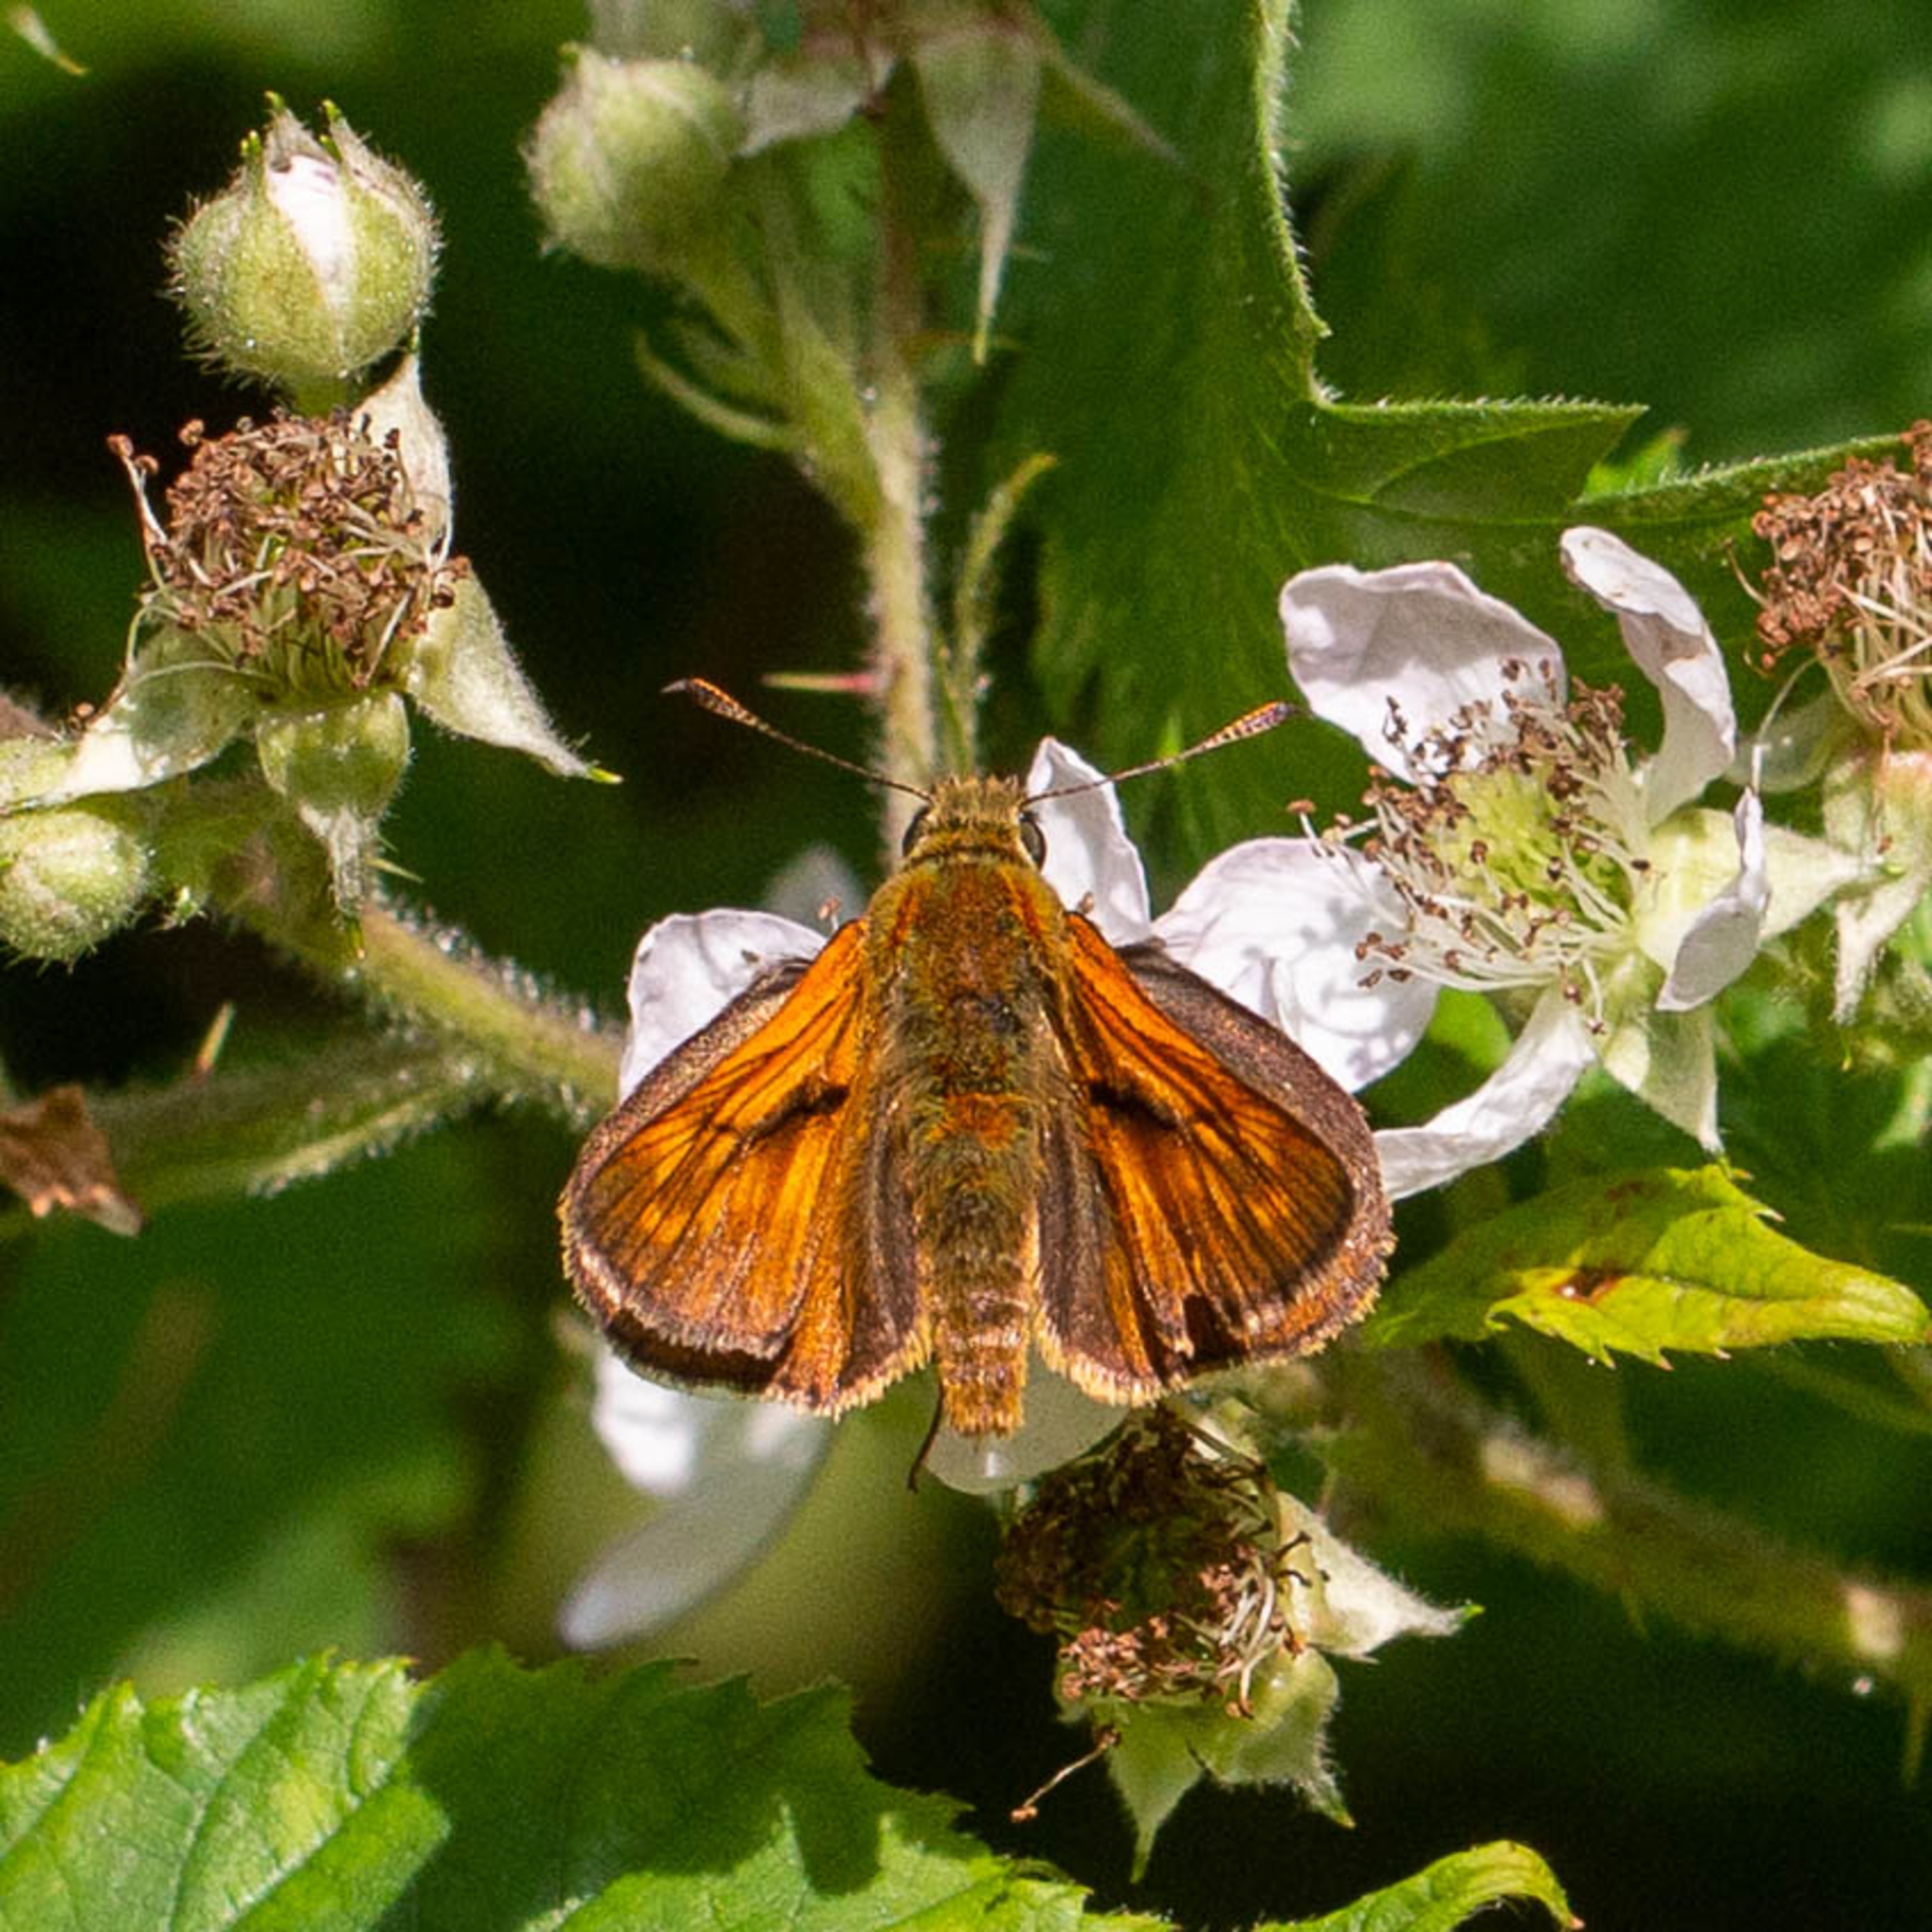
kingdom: Animalia
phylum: Arthropoda
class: Insecta
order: Lepidoptera
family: Hesperiidae
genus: Ochlodes
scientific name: Ochlodes venata
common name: Stor bredpande
